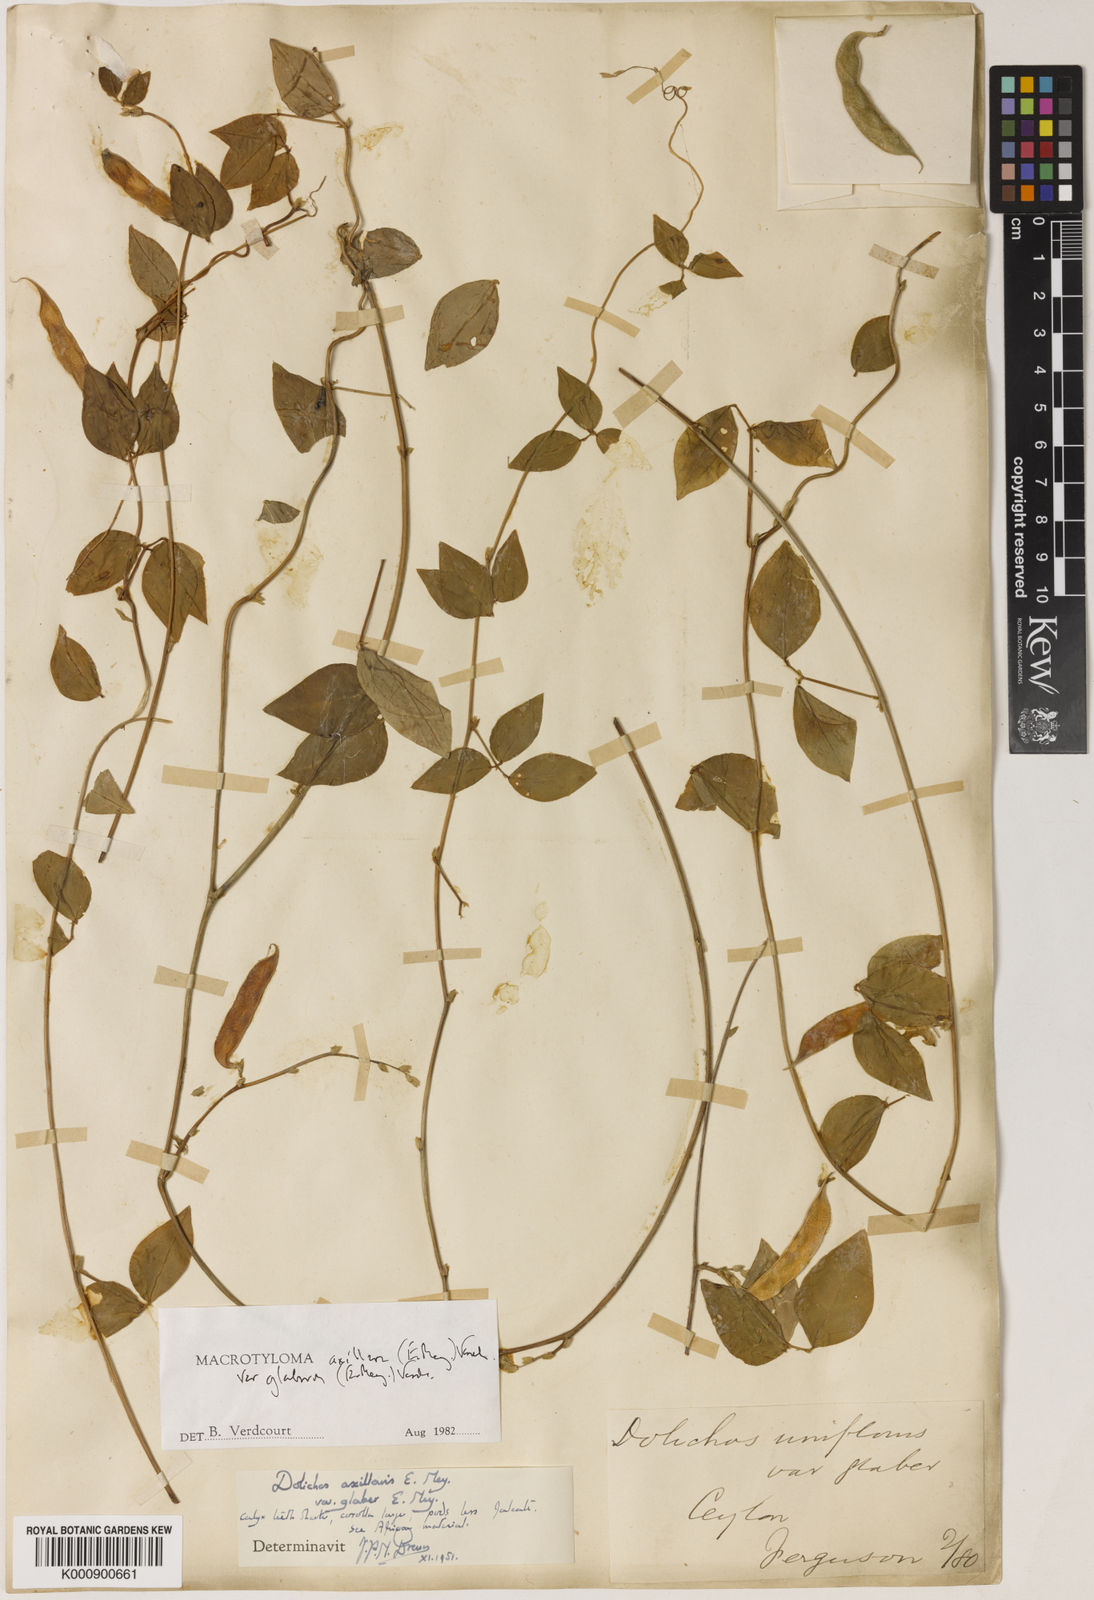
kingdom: Plantae
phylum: Tracheophyta
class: Magnoliopsida
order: Fabales
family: Fabaceae
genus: Macrotyloma
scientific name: Macrotyloma axillare
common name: Perennial horsegram
